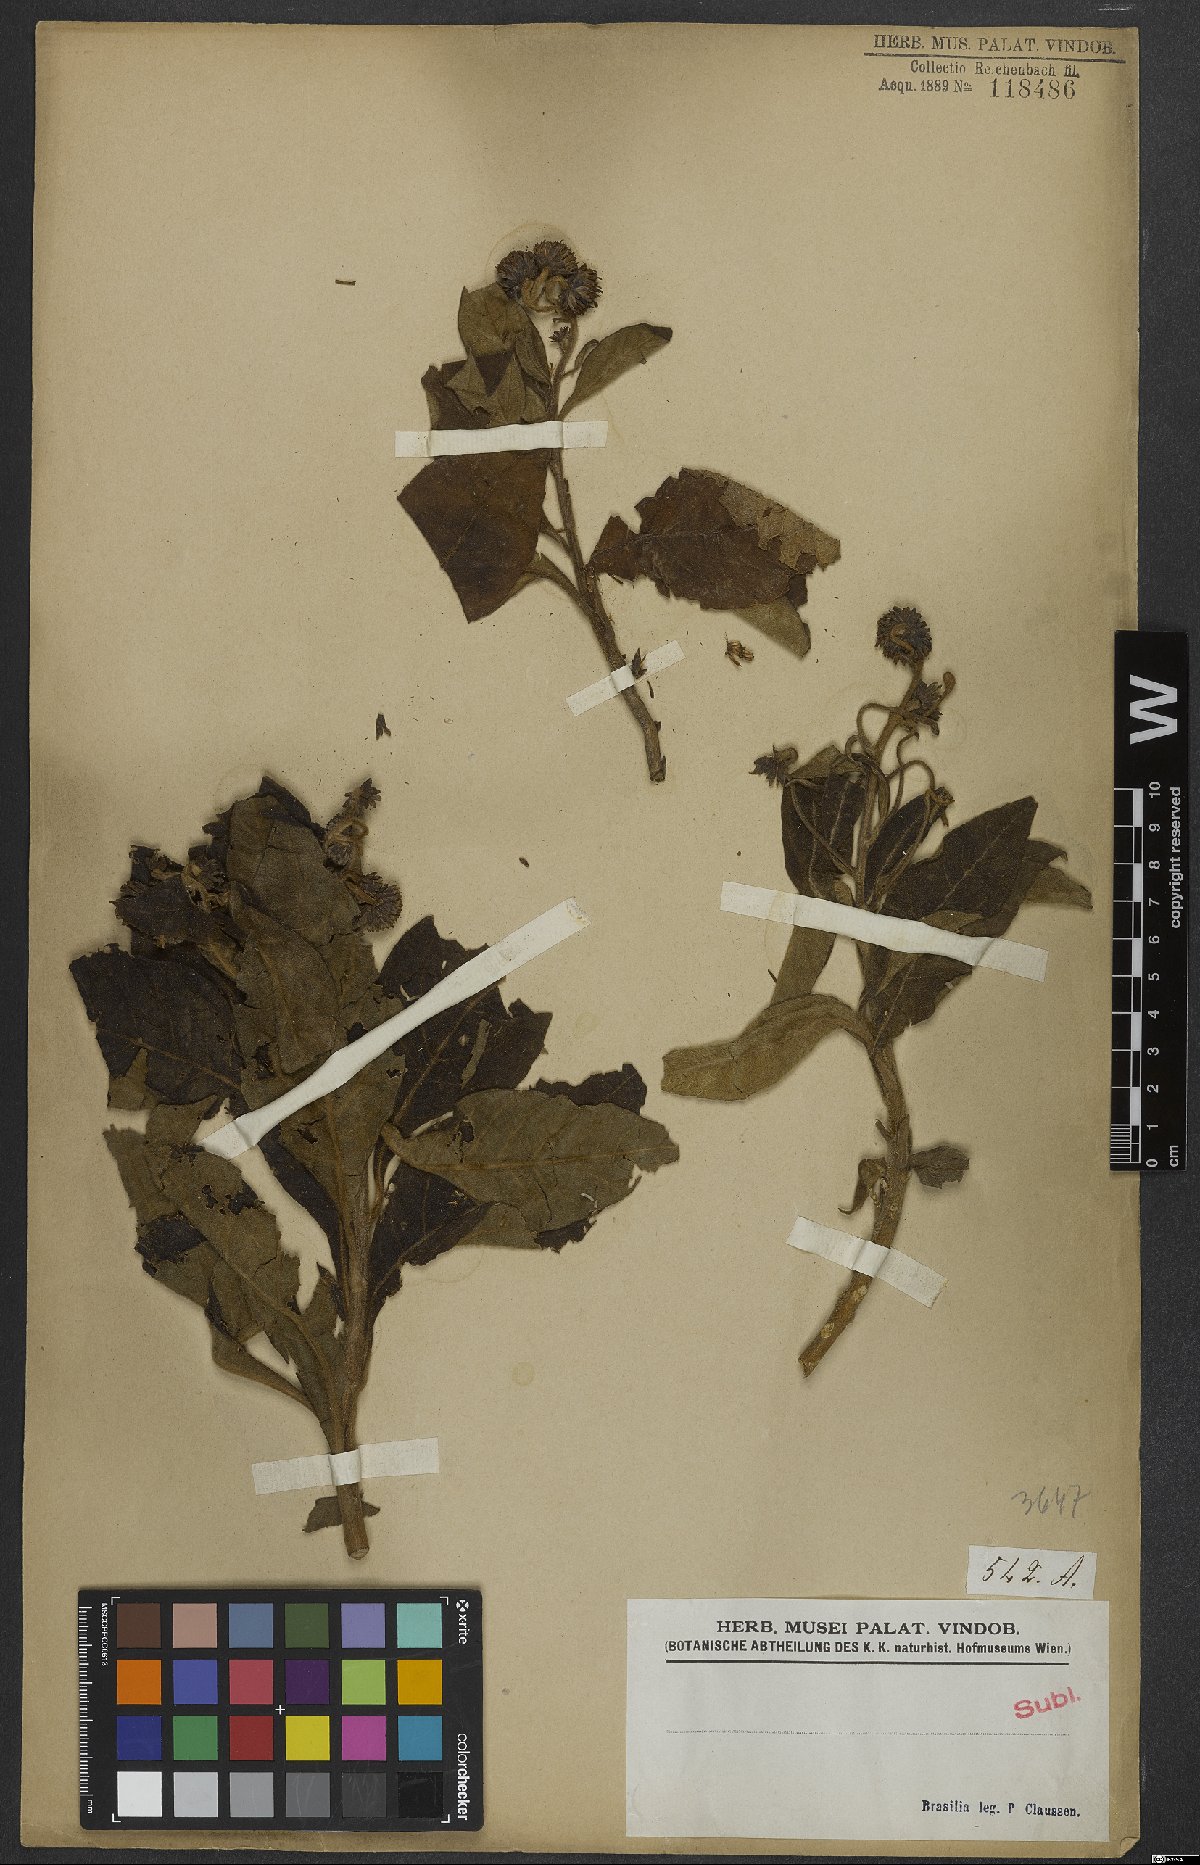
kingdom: Plantae
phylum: Tracheophyta
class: Magnoliopsida
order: Asterales
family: Asteraceae
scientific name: Asteraceae
